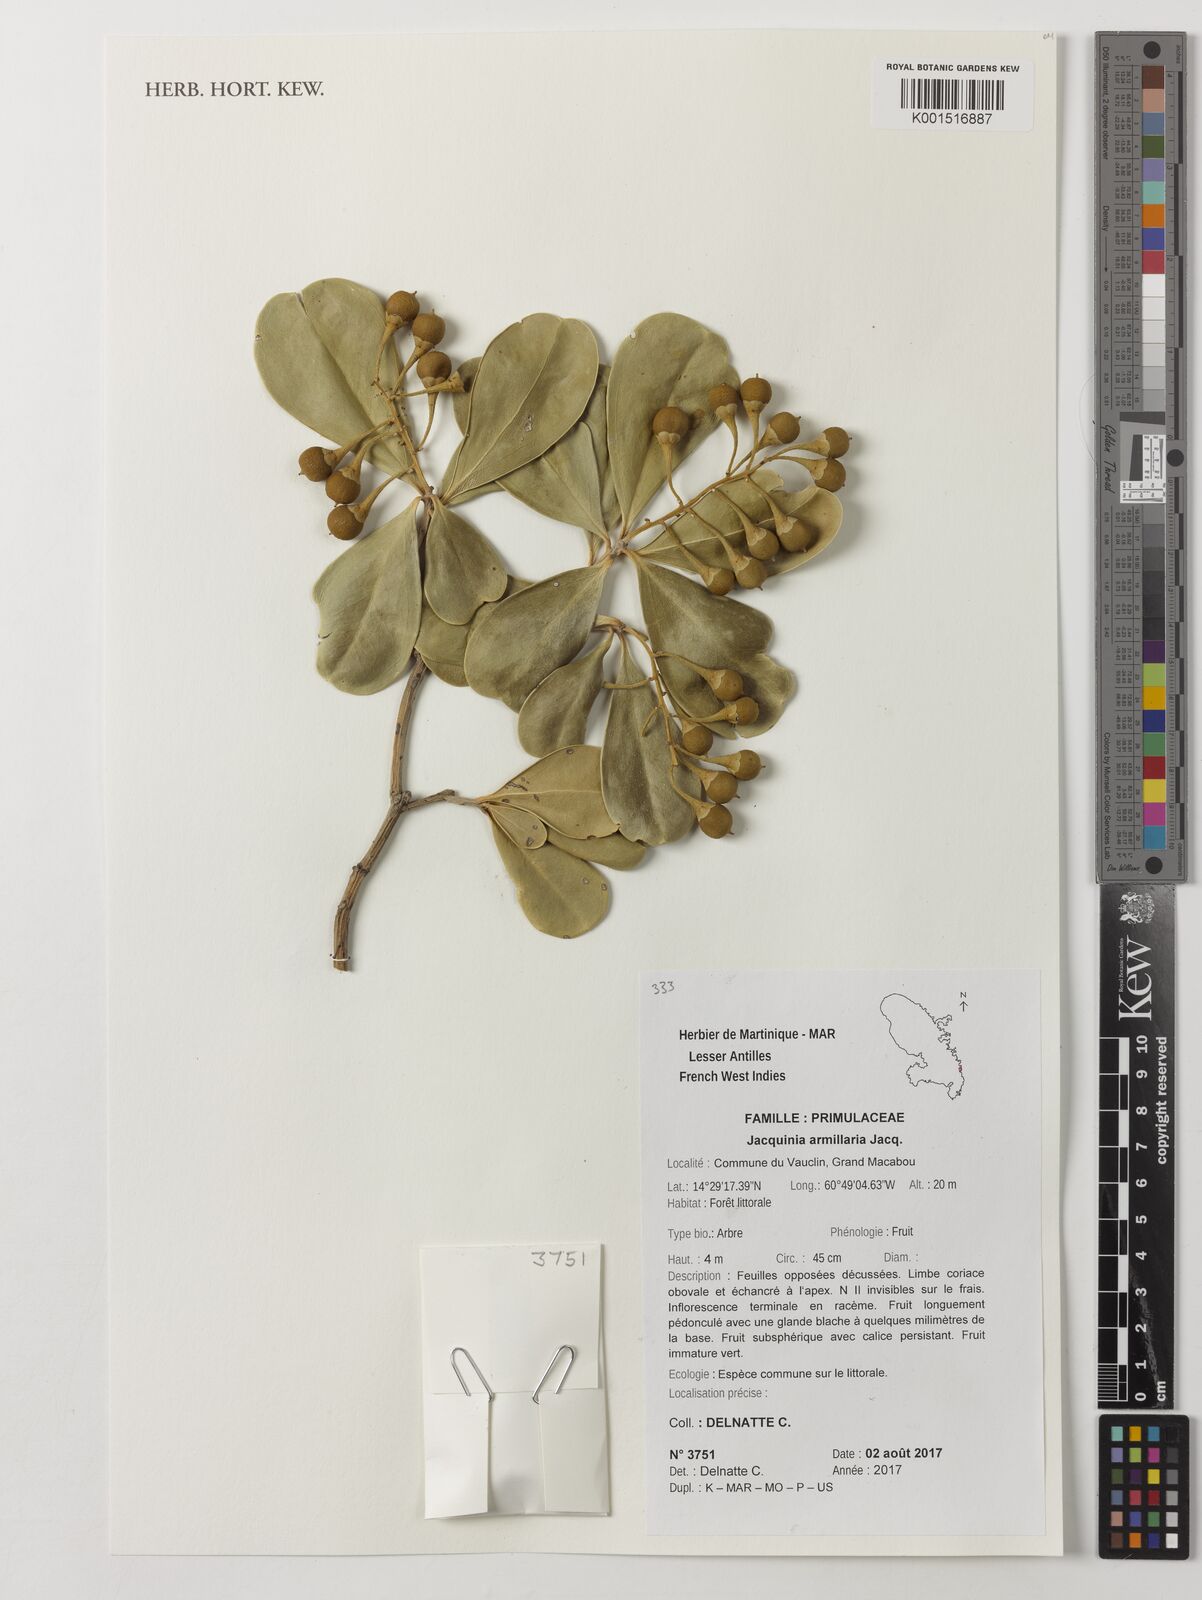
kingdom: Plantae
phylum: Tracheophyta
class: Magnoliopsida
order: Ericales
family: Primulaceae
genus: Jacquinia
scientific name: Jacquinia armillaris
